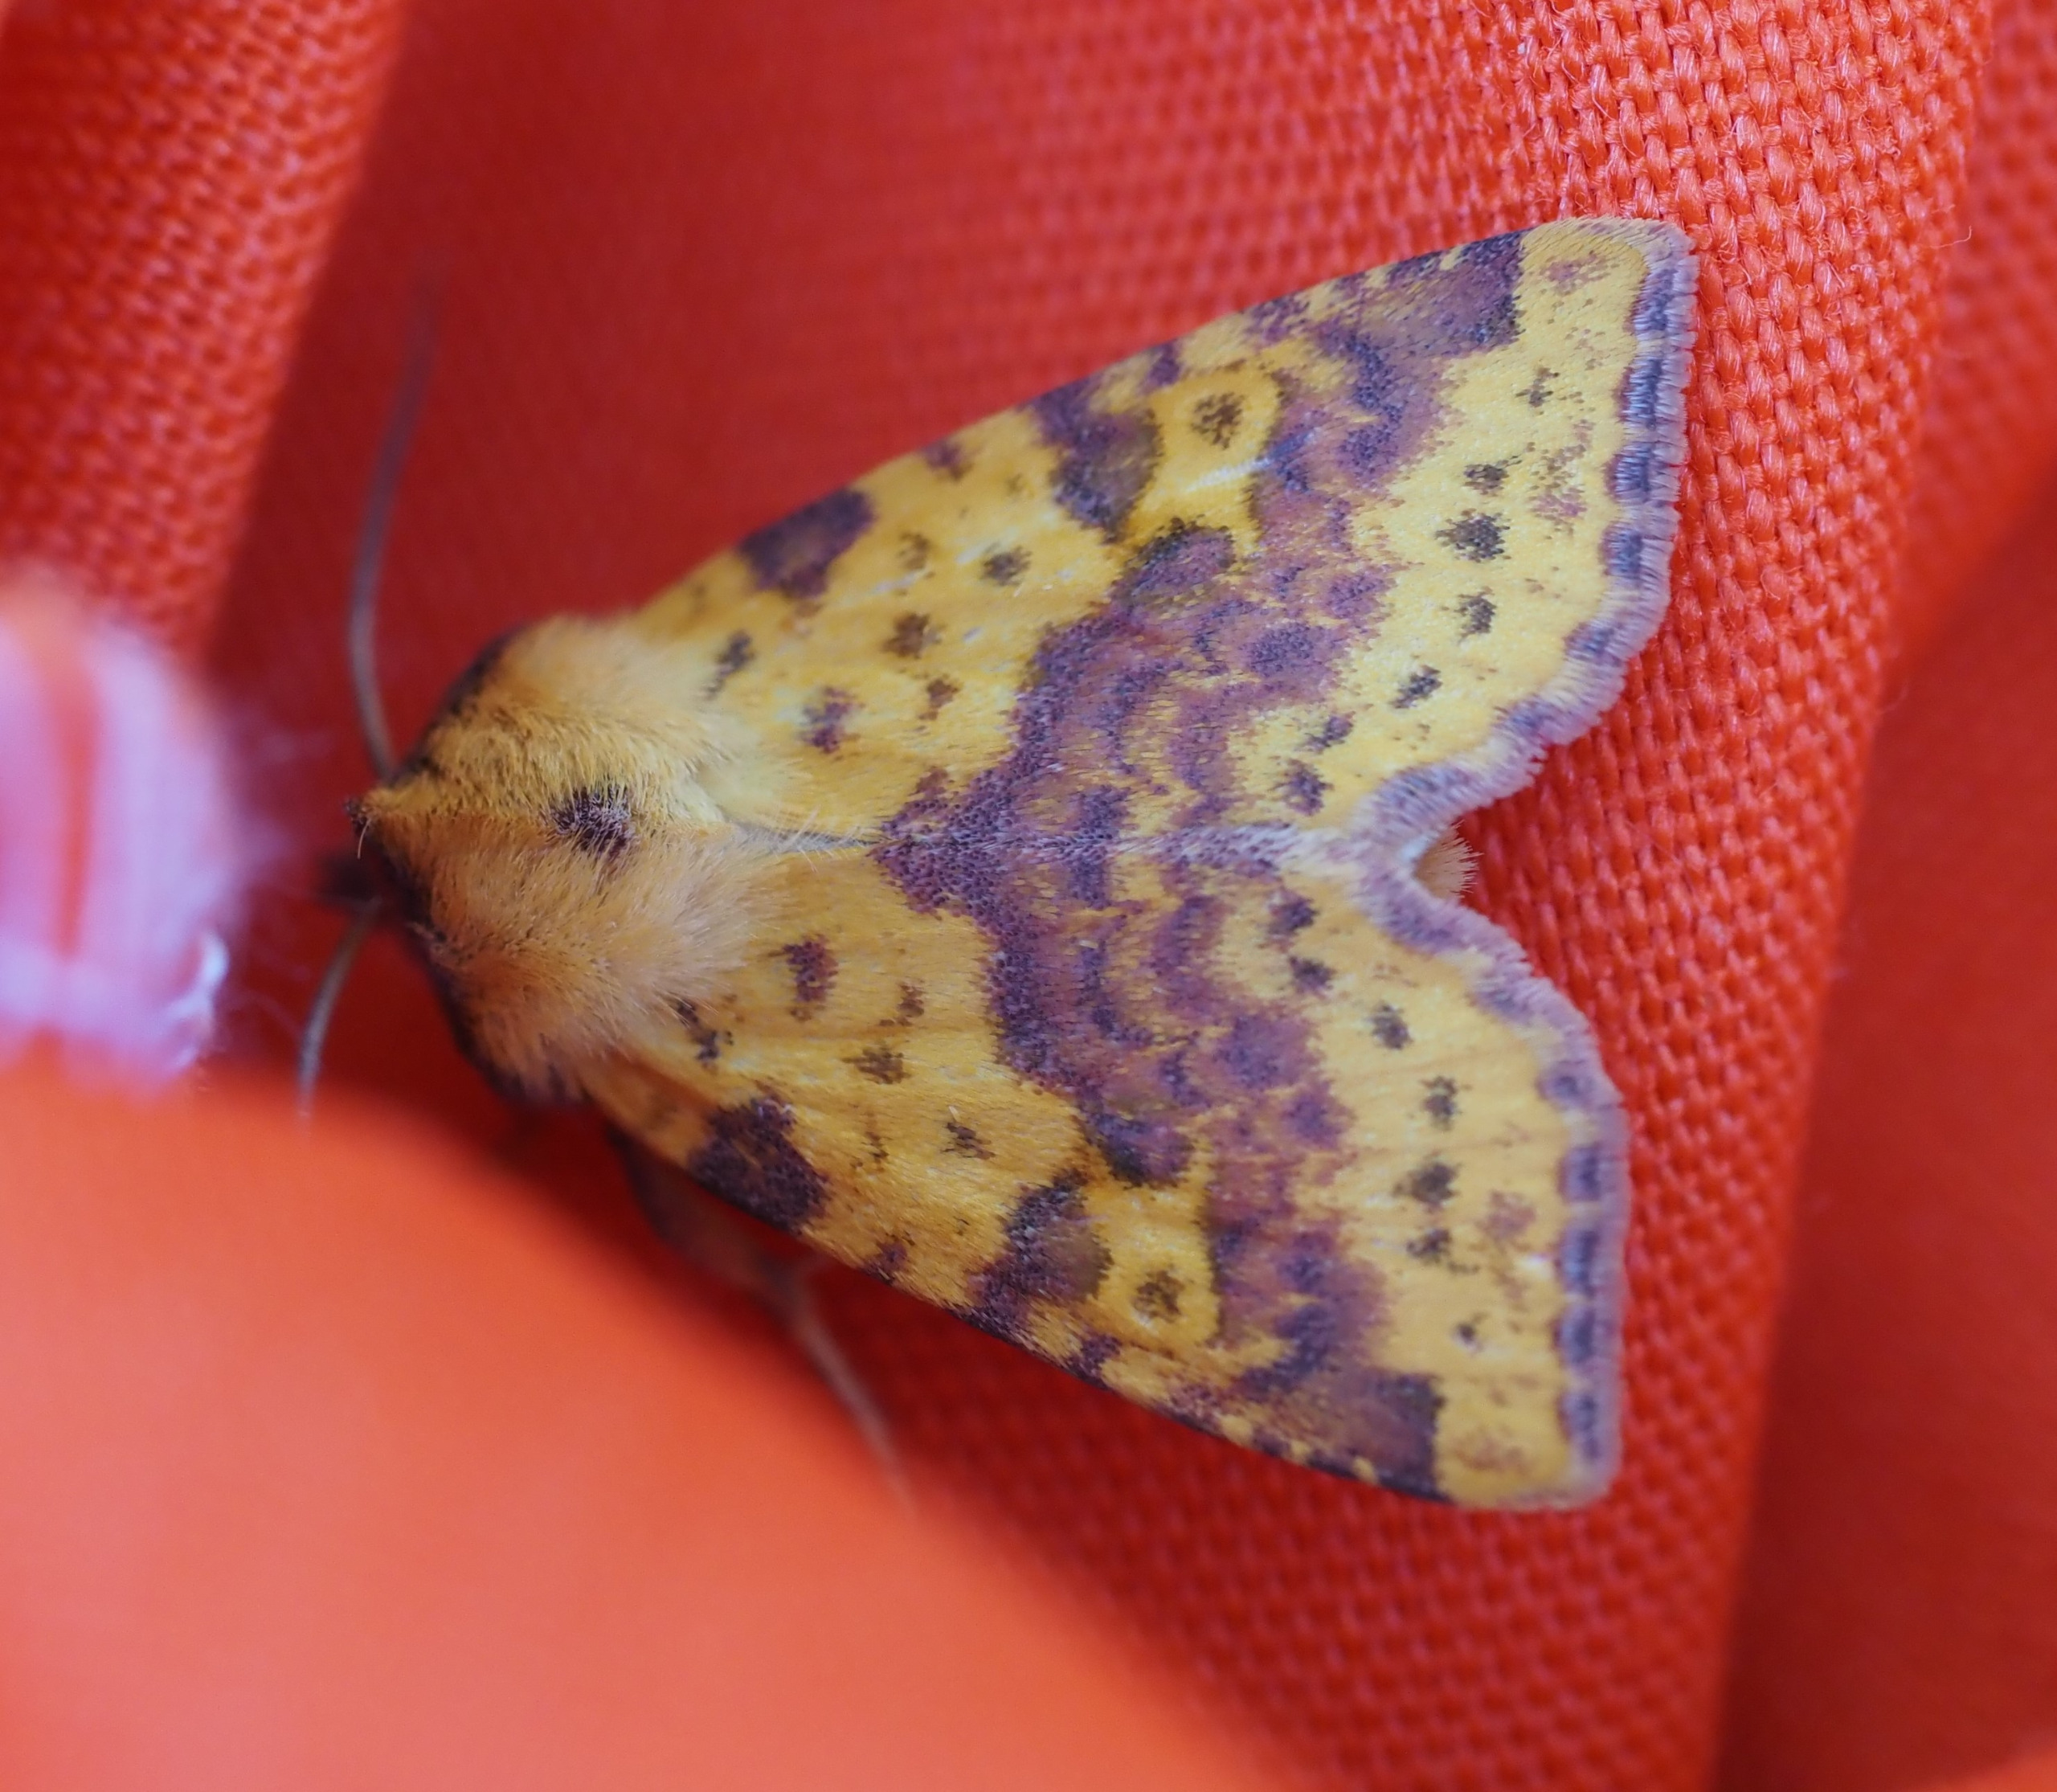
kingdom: Animalia
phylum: Arthropoda
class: Insecta
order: Lepidoptera
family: Noctuidae
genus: Xanthia
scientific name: Xanthia togata
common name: Toga-septemberugle
